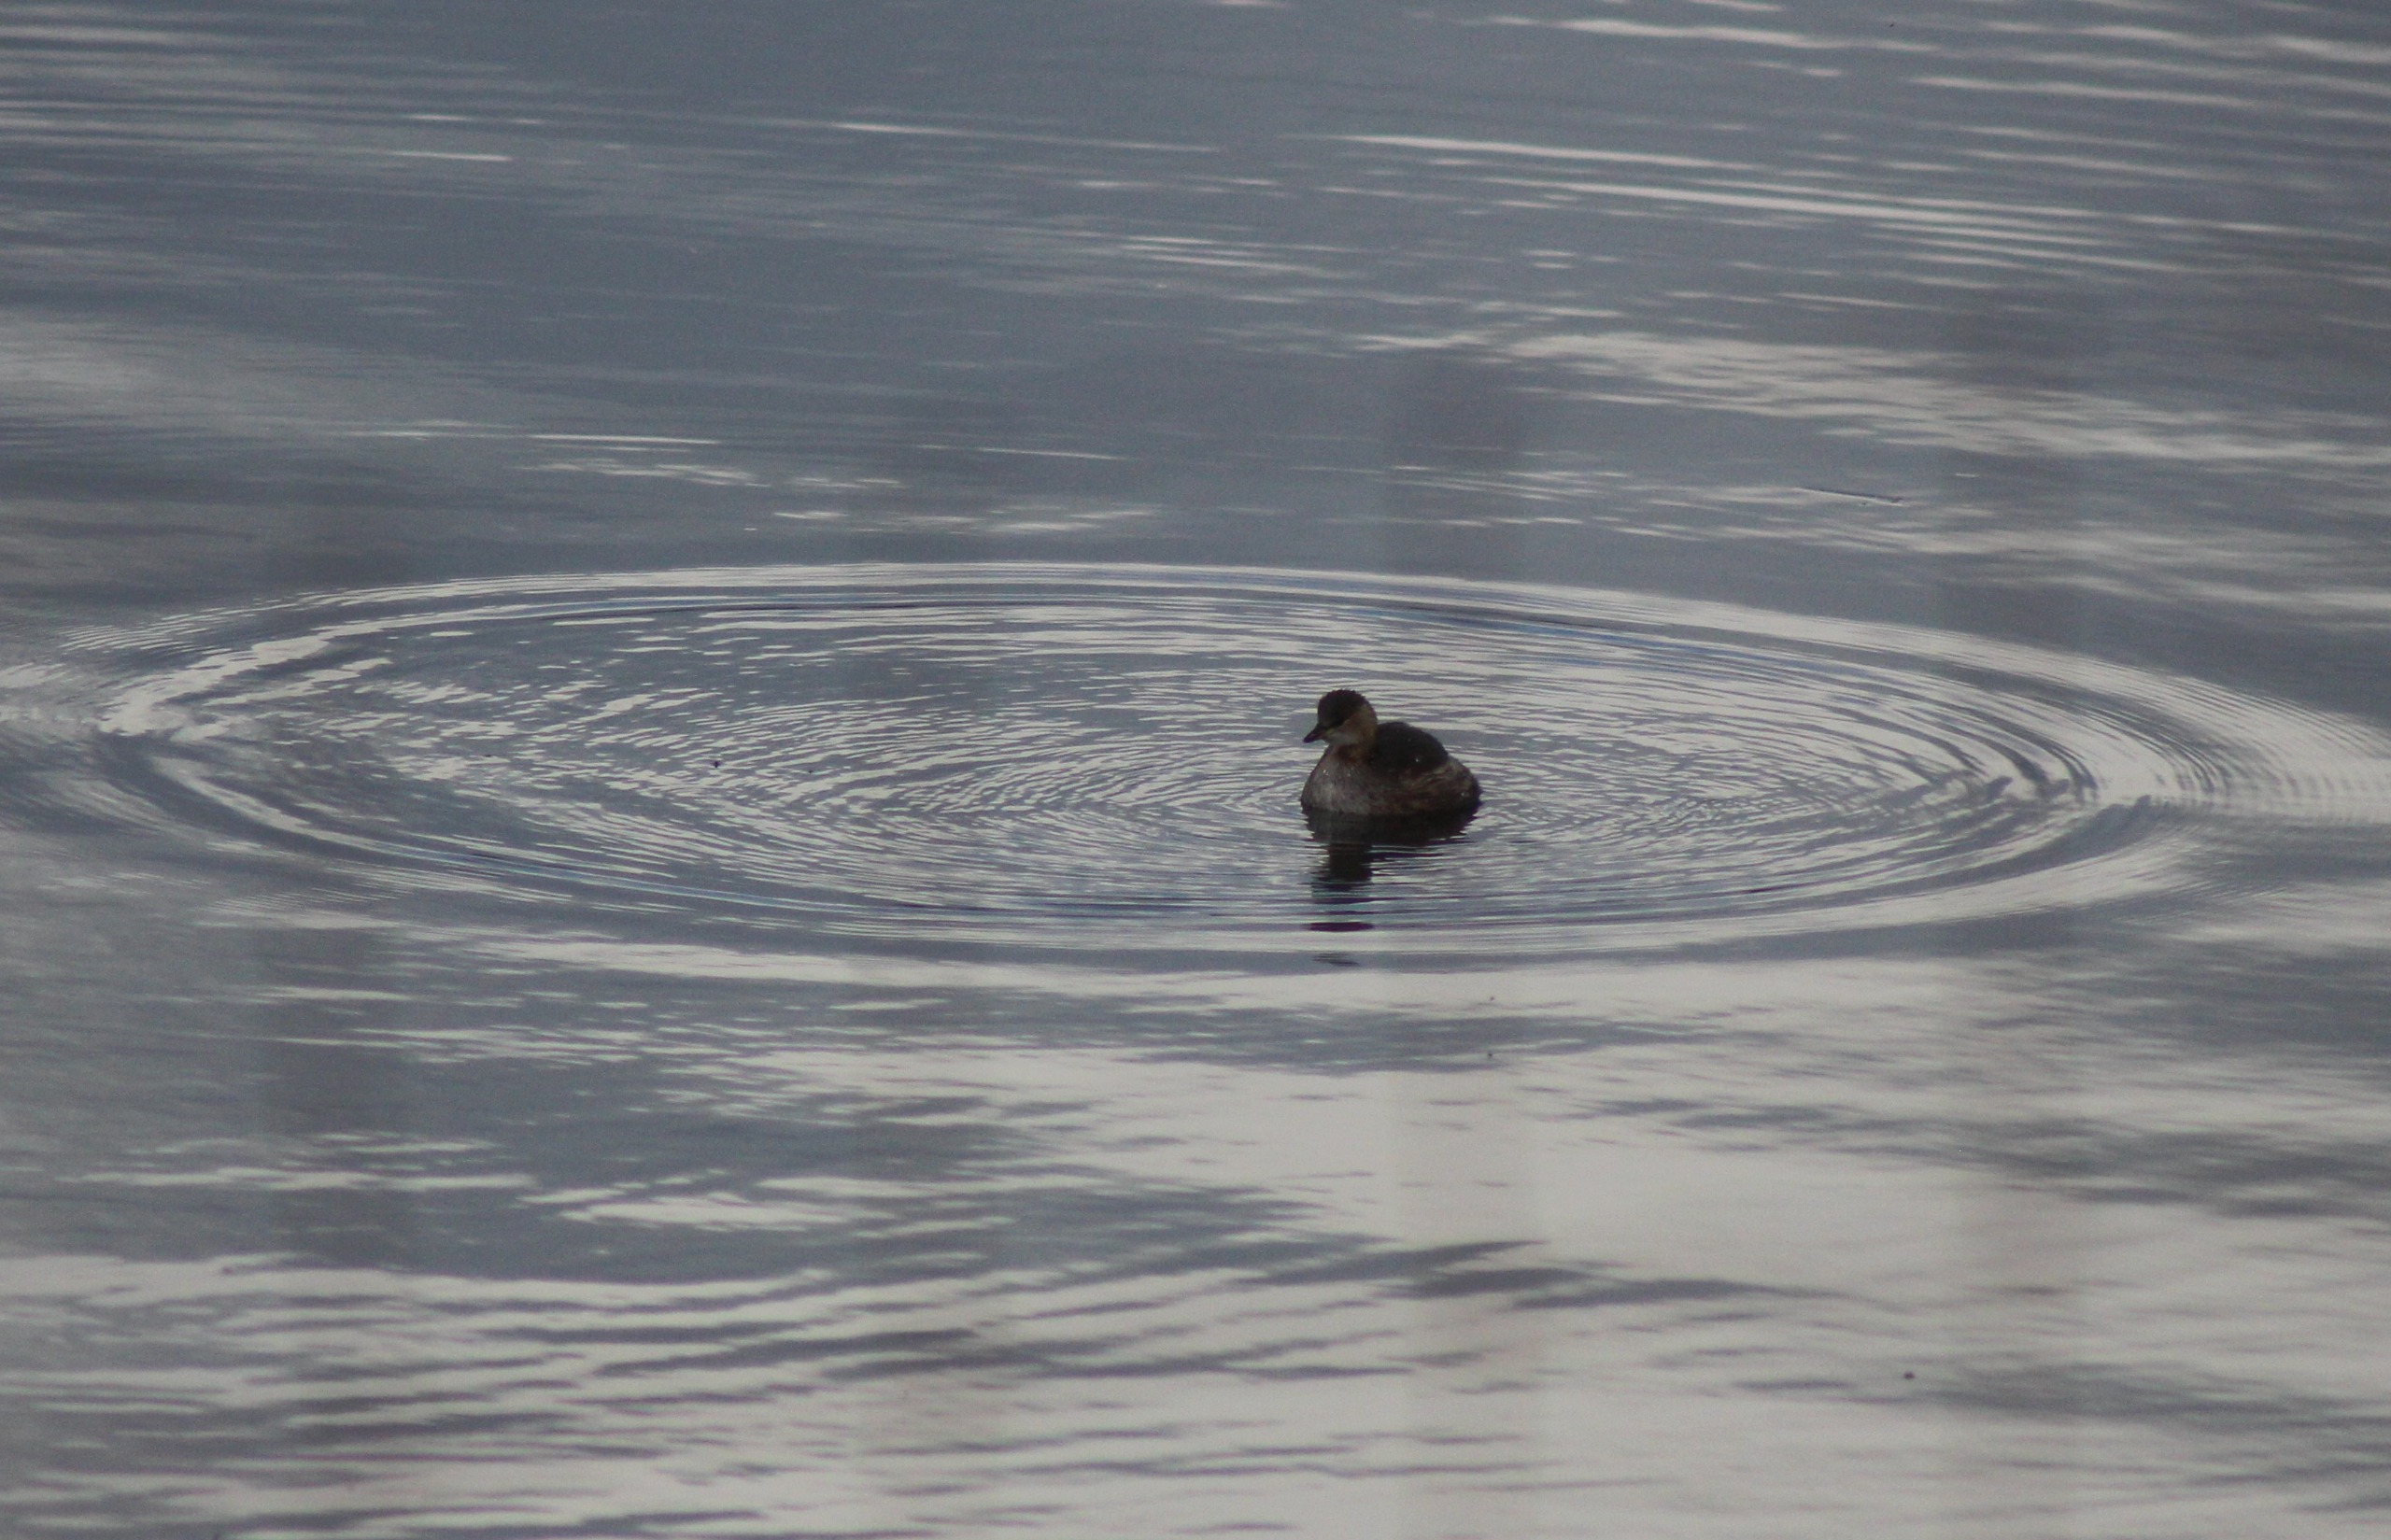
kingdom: Animalia
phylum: Chordata
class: Aves
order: Podicipediformes
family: Podicipedidae
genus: Tachybaptus
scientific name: Tachybaptus ruficollis
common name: Lille lappedykker
